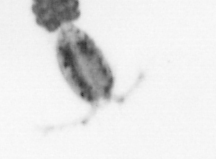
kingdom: Animalia
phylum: Arthropoda
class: Copepoda
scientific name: Copepoda
